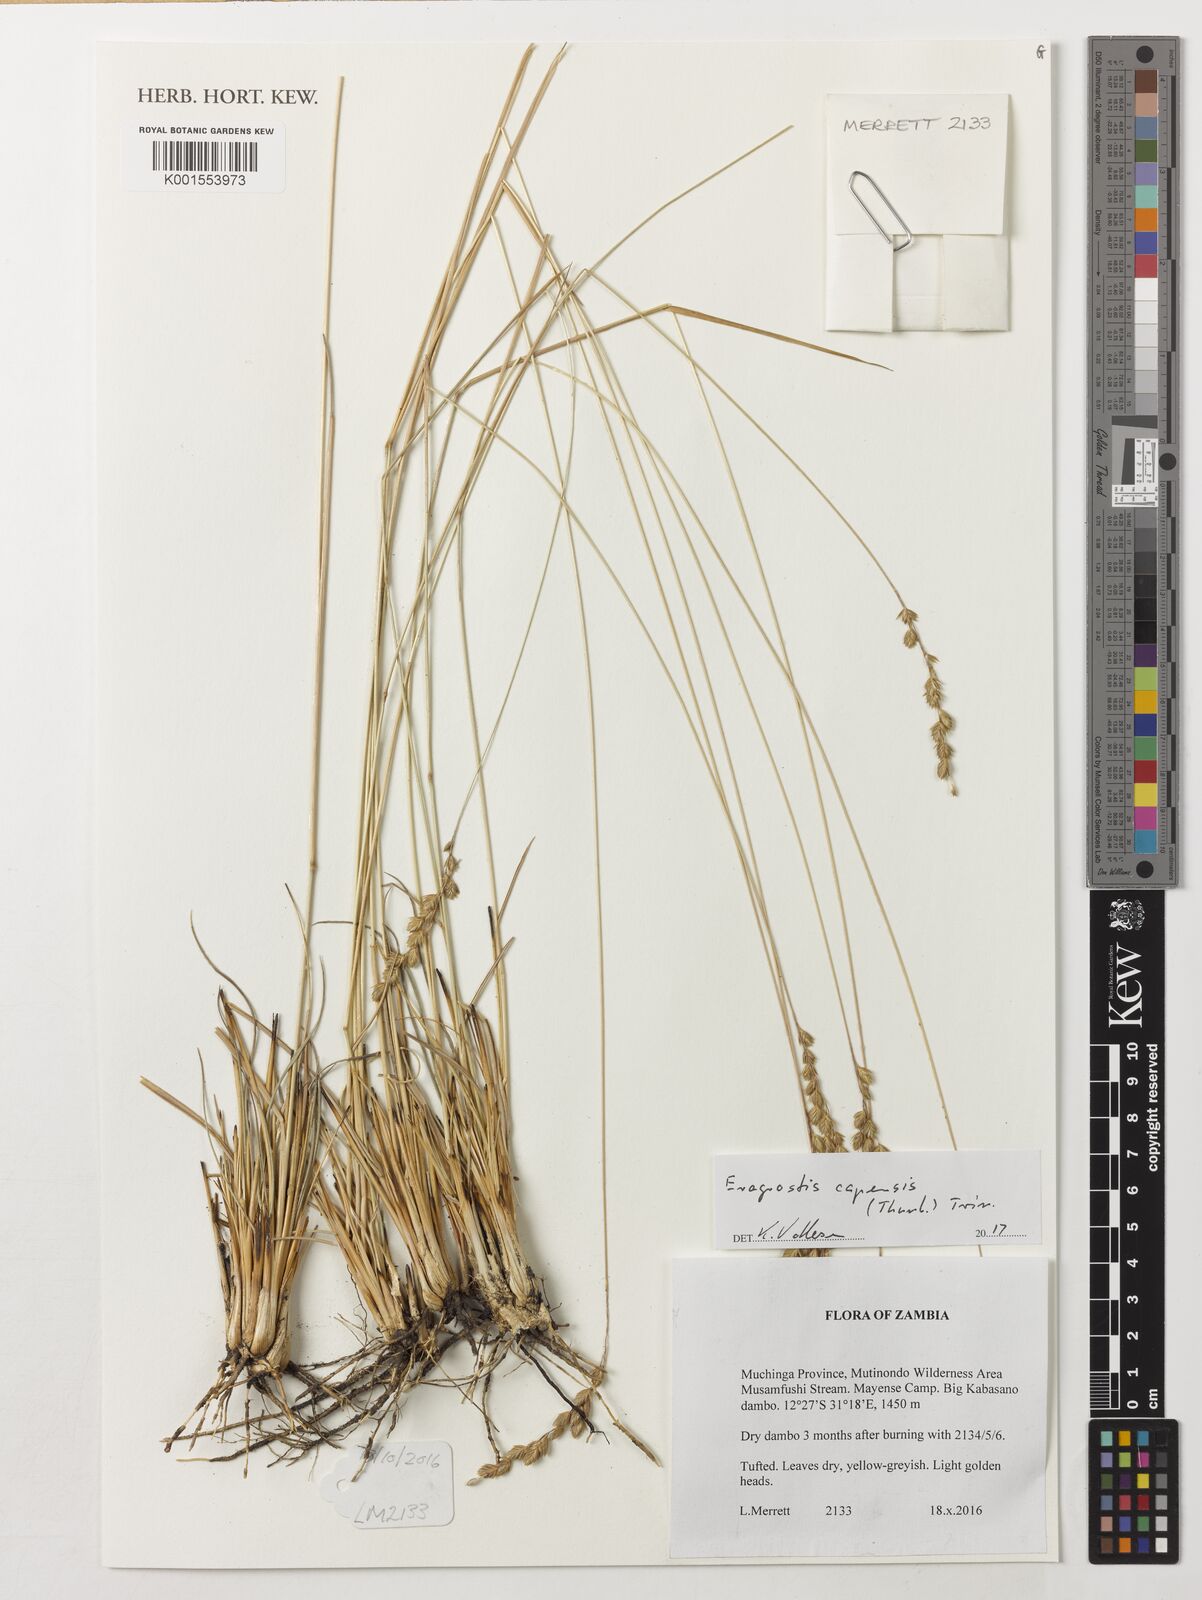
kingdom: Plantae
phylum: Tracheophyta
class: Liliopsida
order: Poales
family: Poaceae
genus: Eragrostis
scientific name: Eragrostis capensis
